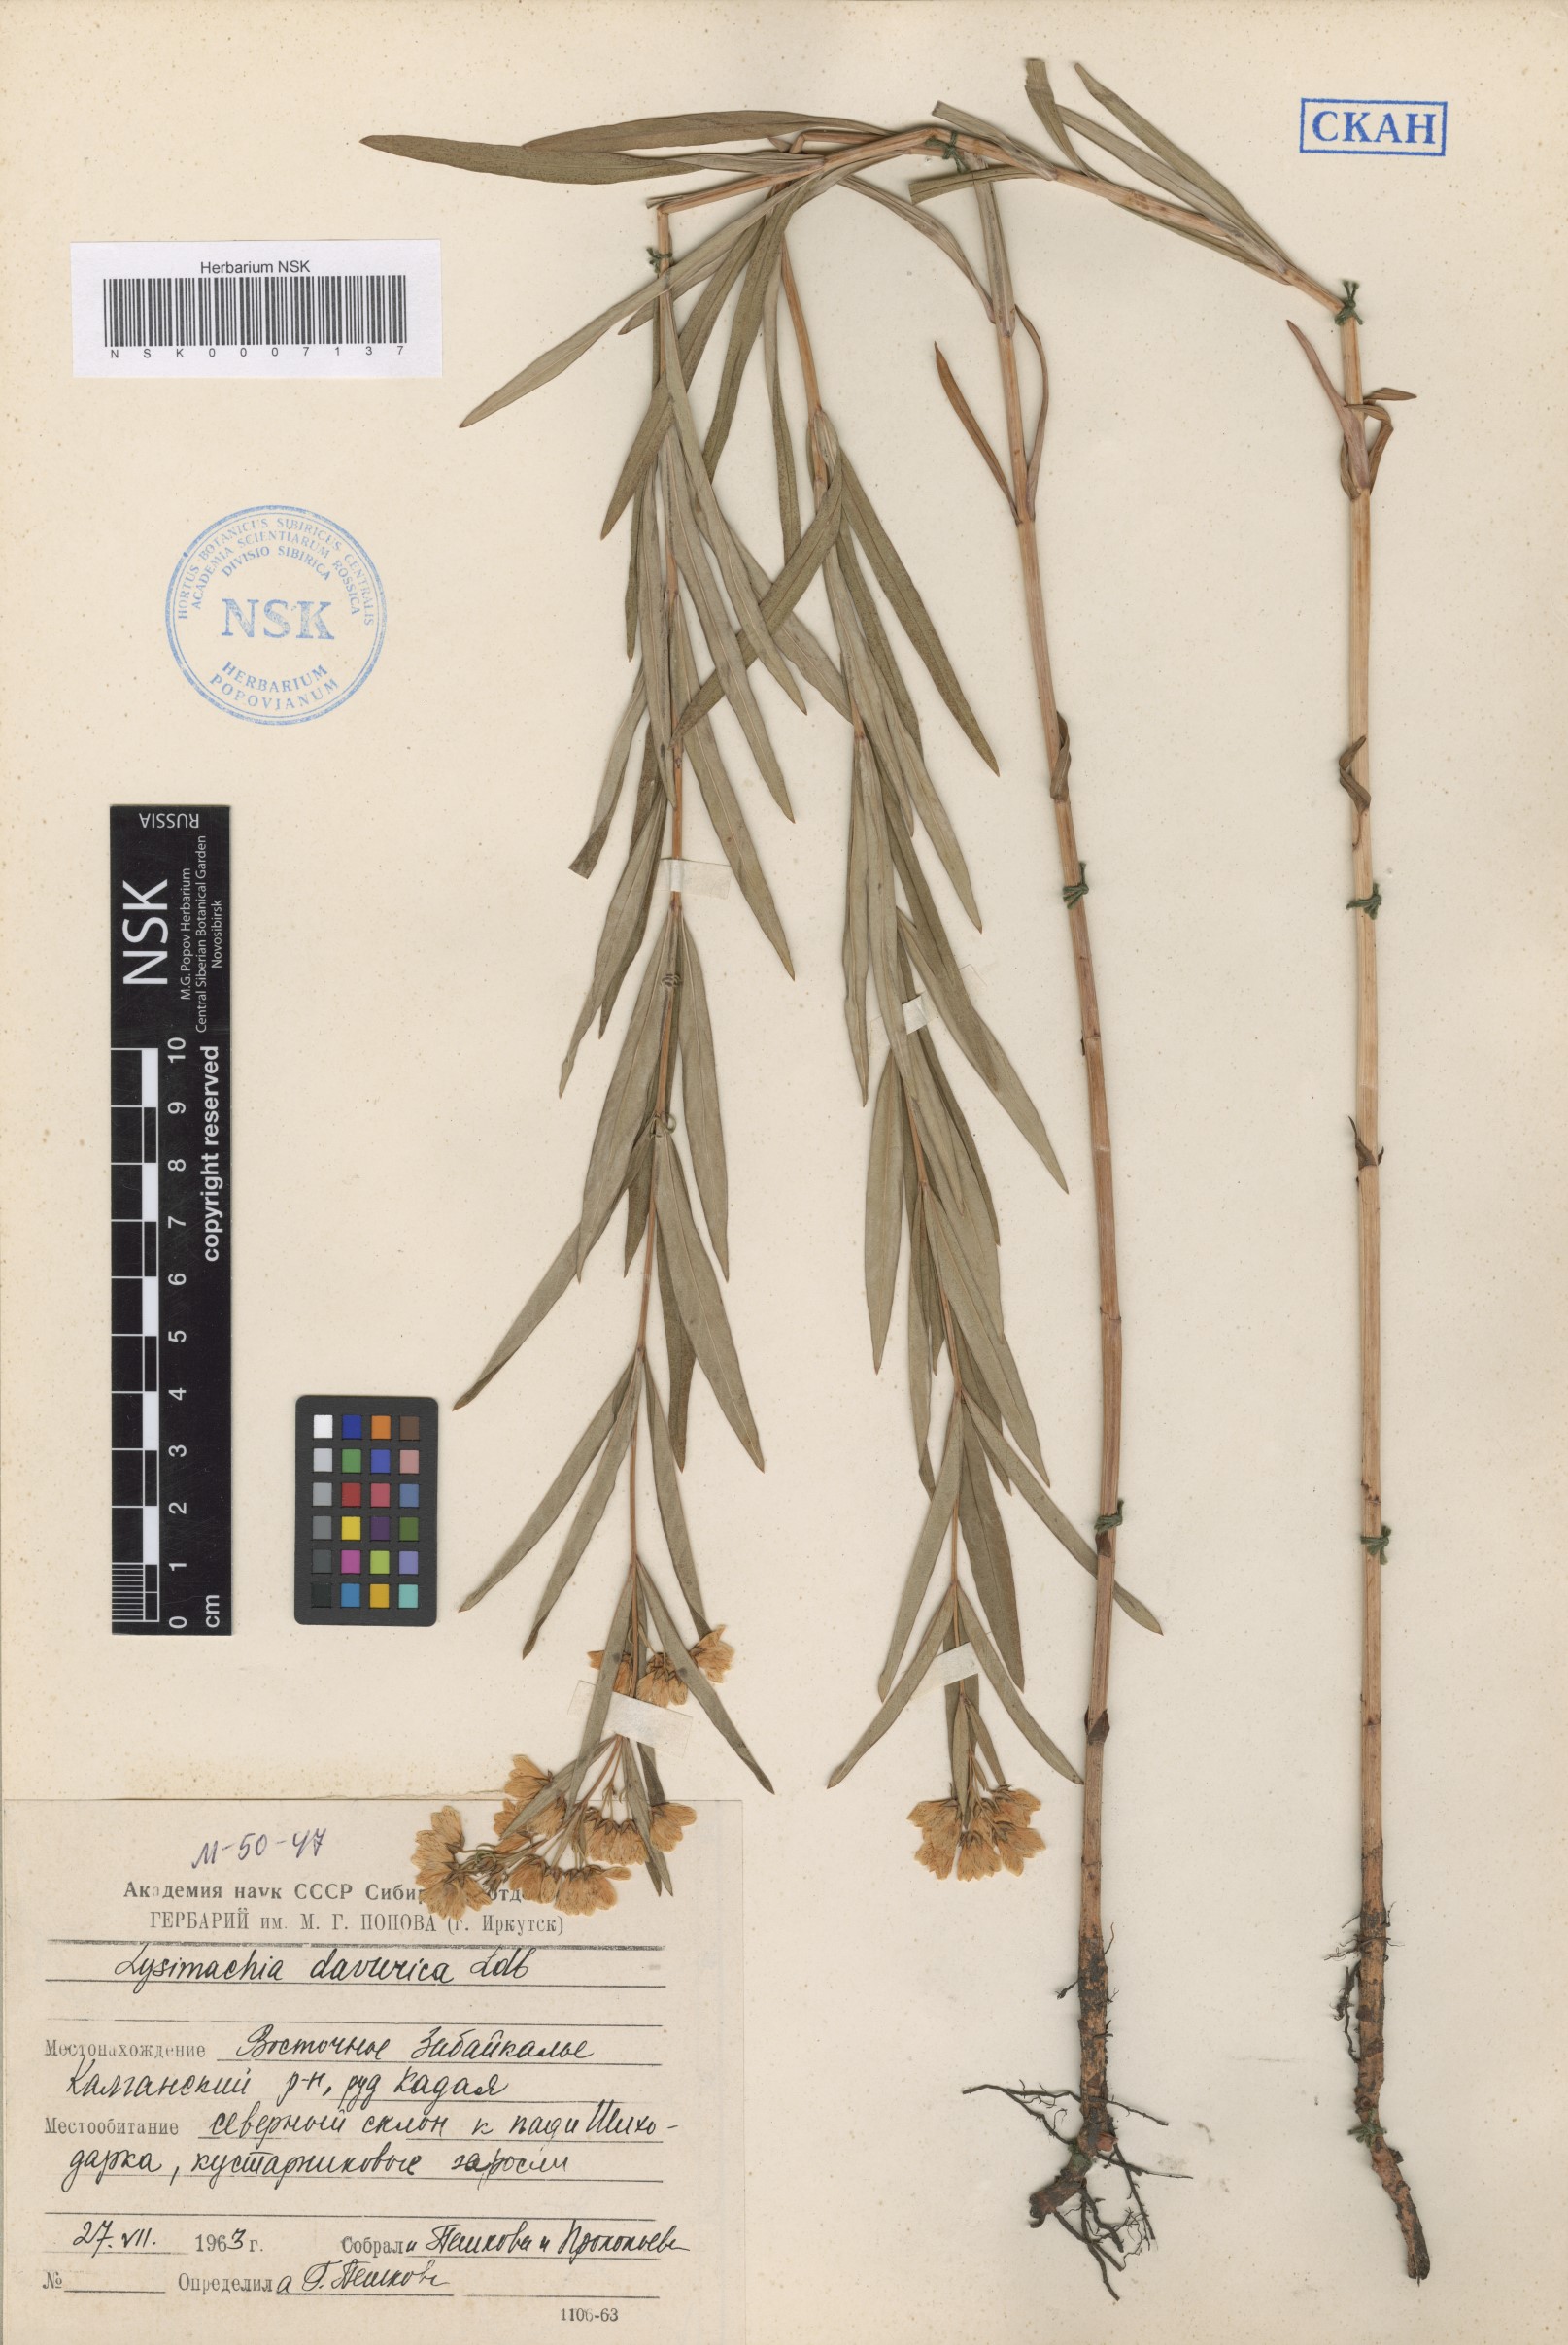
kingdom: Plantae
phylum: Tracheophyta
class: Magnoliopsida
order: Ericales
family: Primulaceae
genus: Lysimachia
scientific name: Lysimachia davurica
